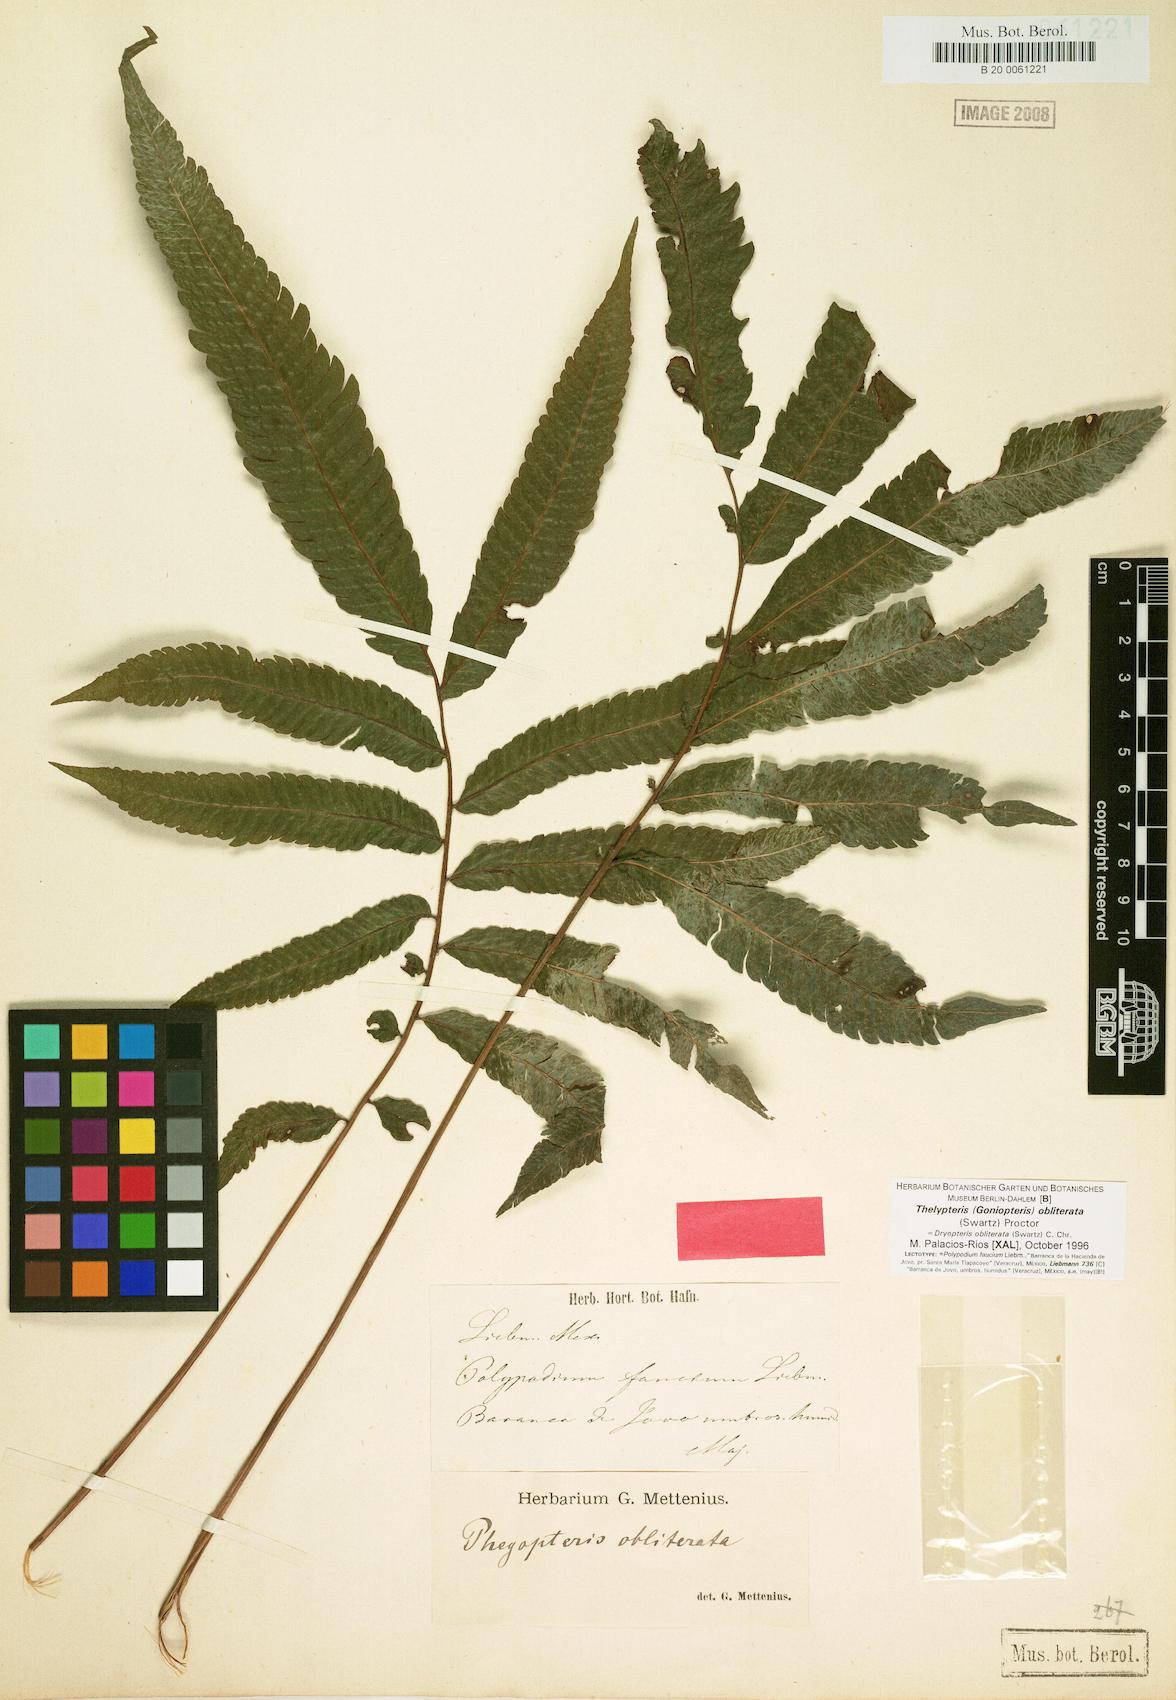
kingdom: Plantae
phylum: Tracheophyta
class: Polypodiopsida
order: Polypodiales
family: Thelypteridaceae
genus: Goniopteris
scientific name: Goniopteris obliterata
